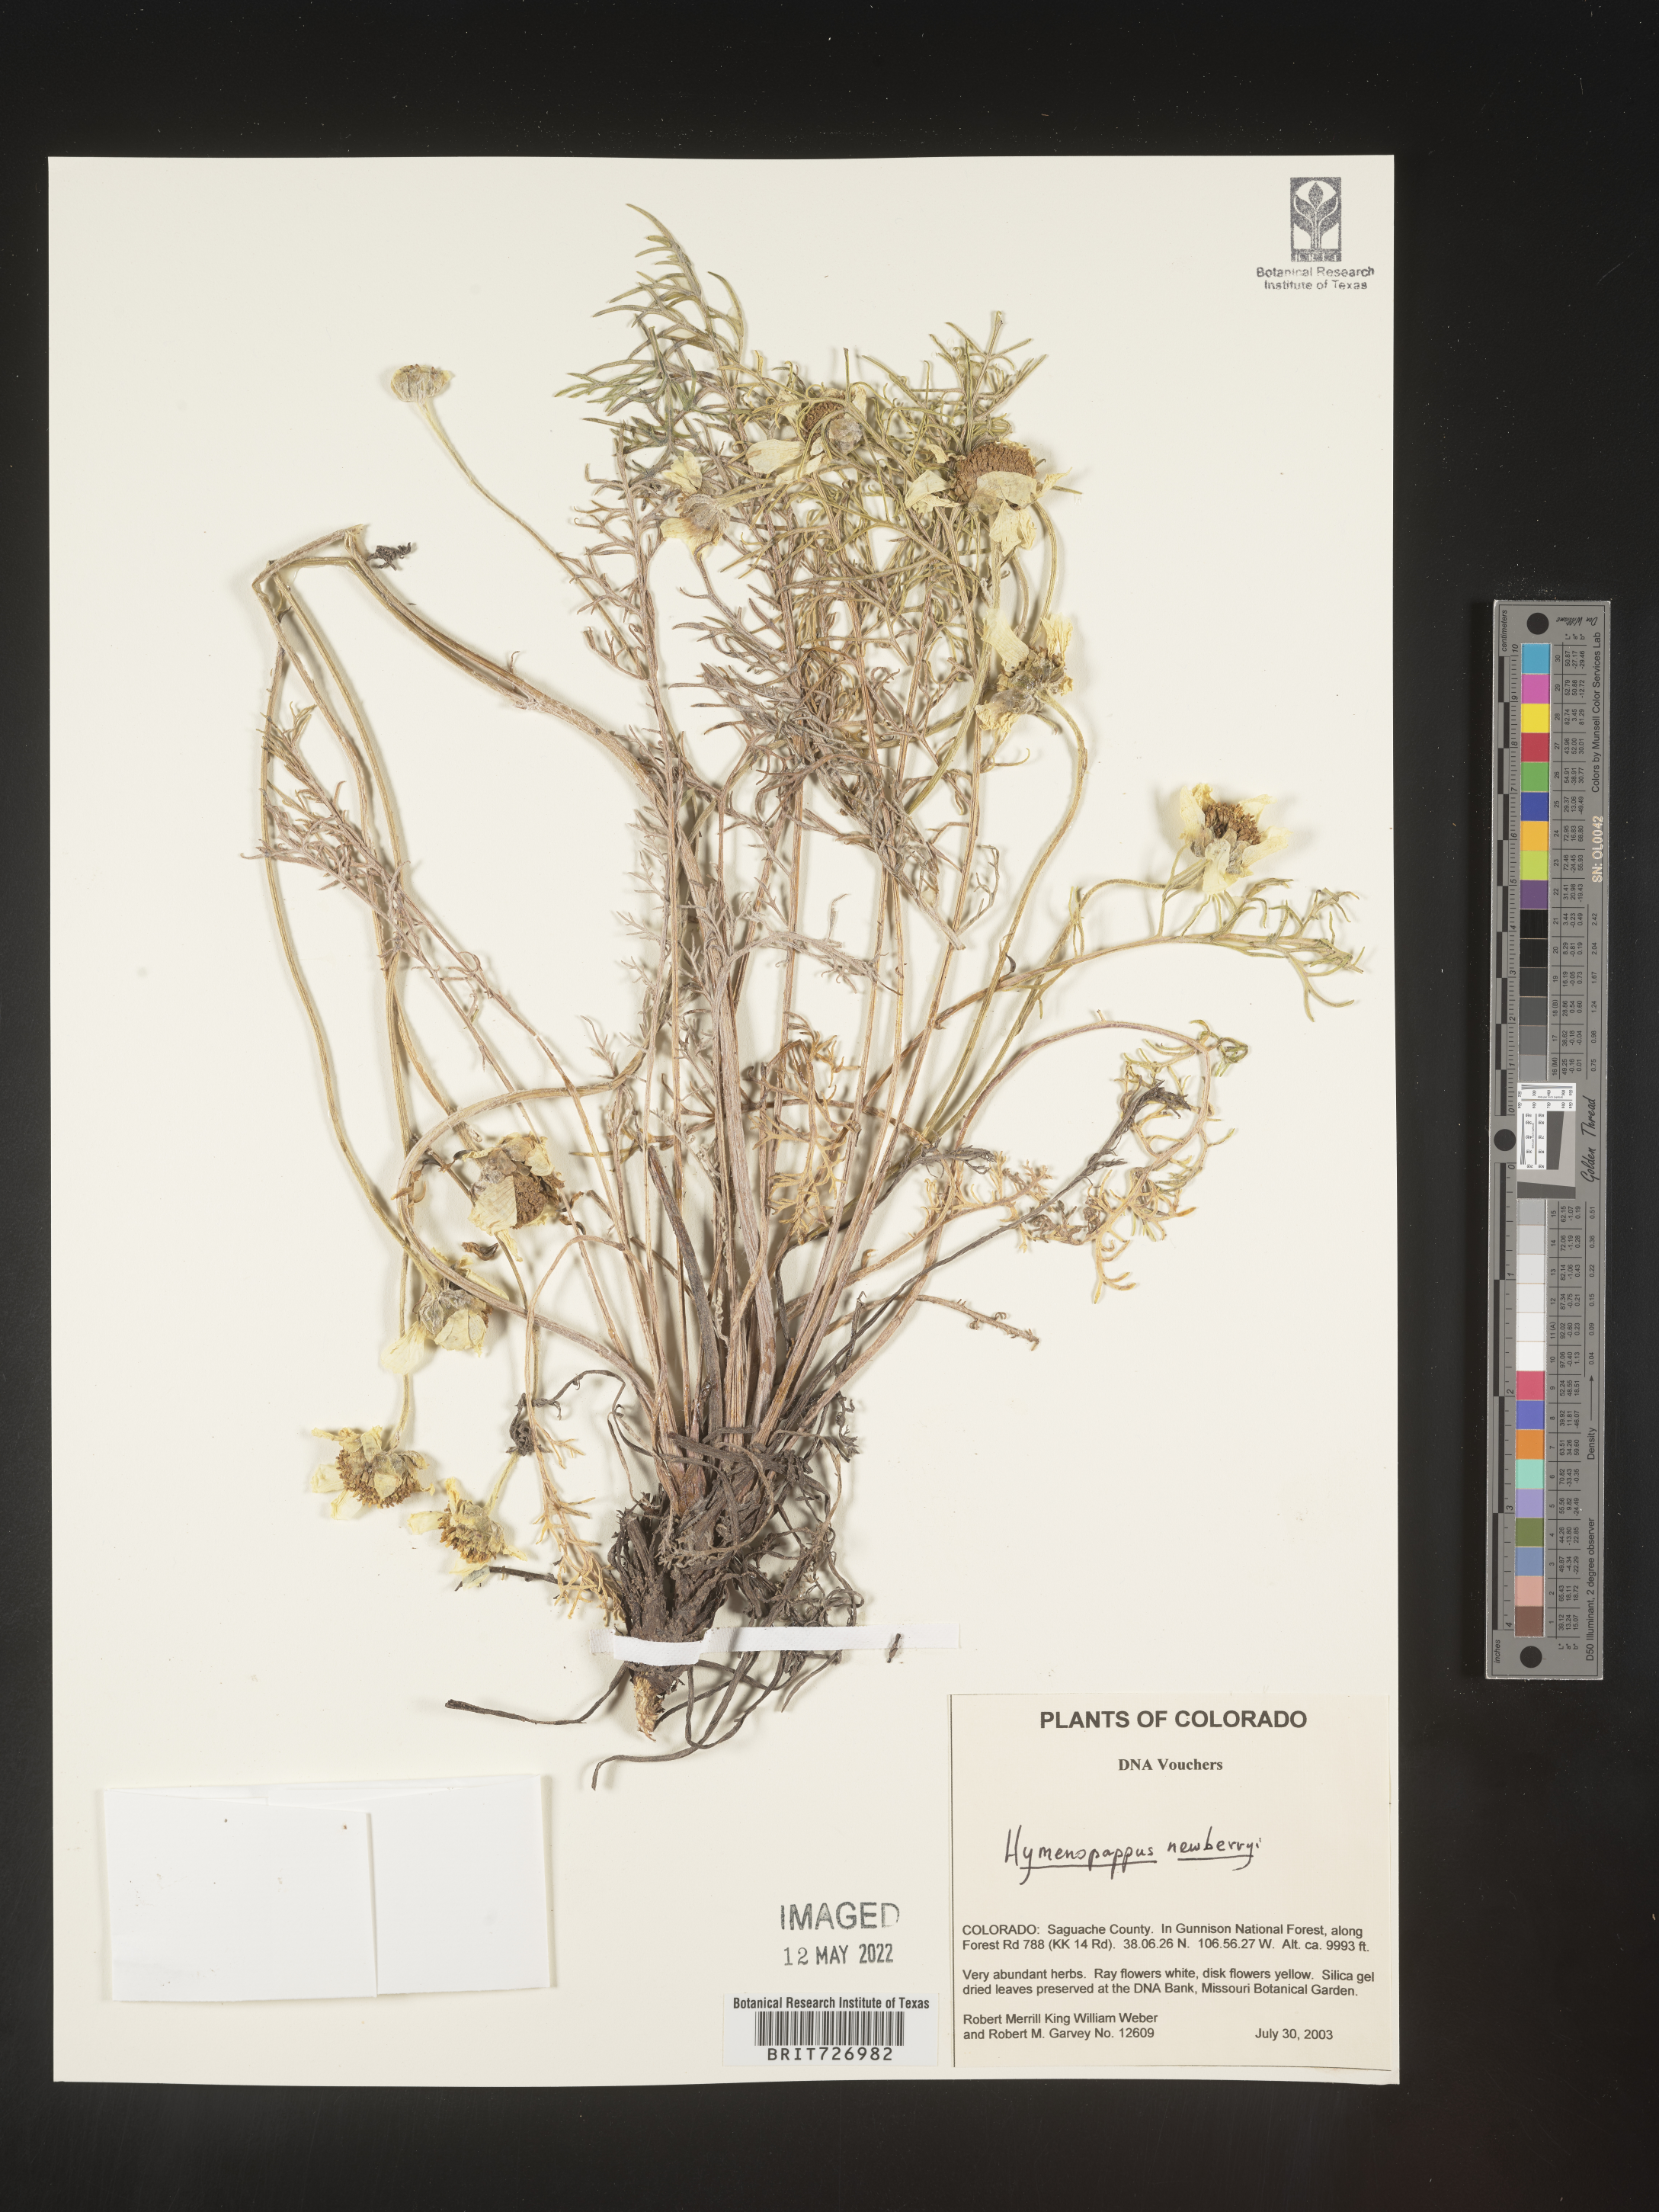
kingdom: Plantae
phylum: Tracheophyta
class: Magnoliopsida
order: Asterales
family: Asteraceae
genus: Hymenopappus
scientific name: Hymenopappus newberryi
